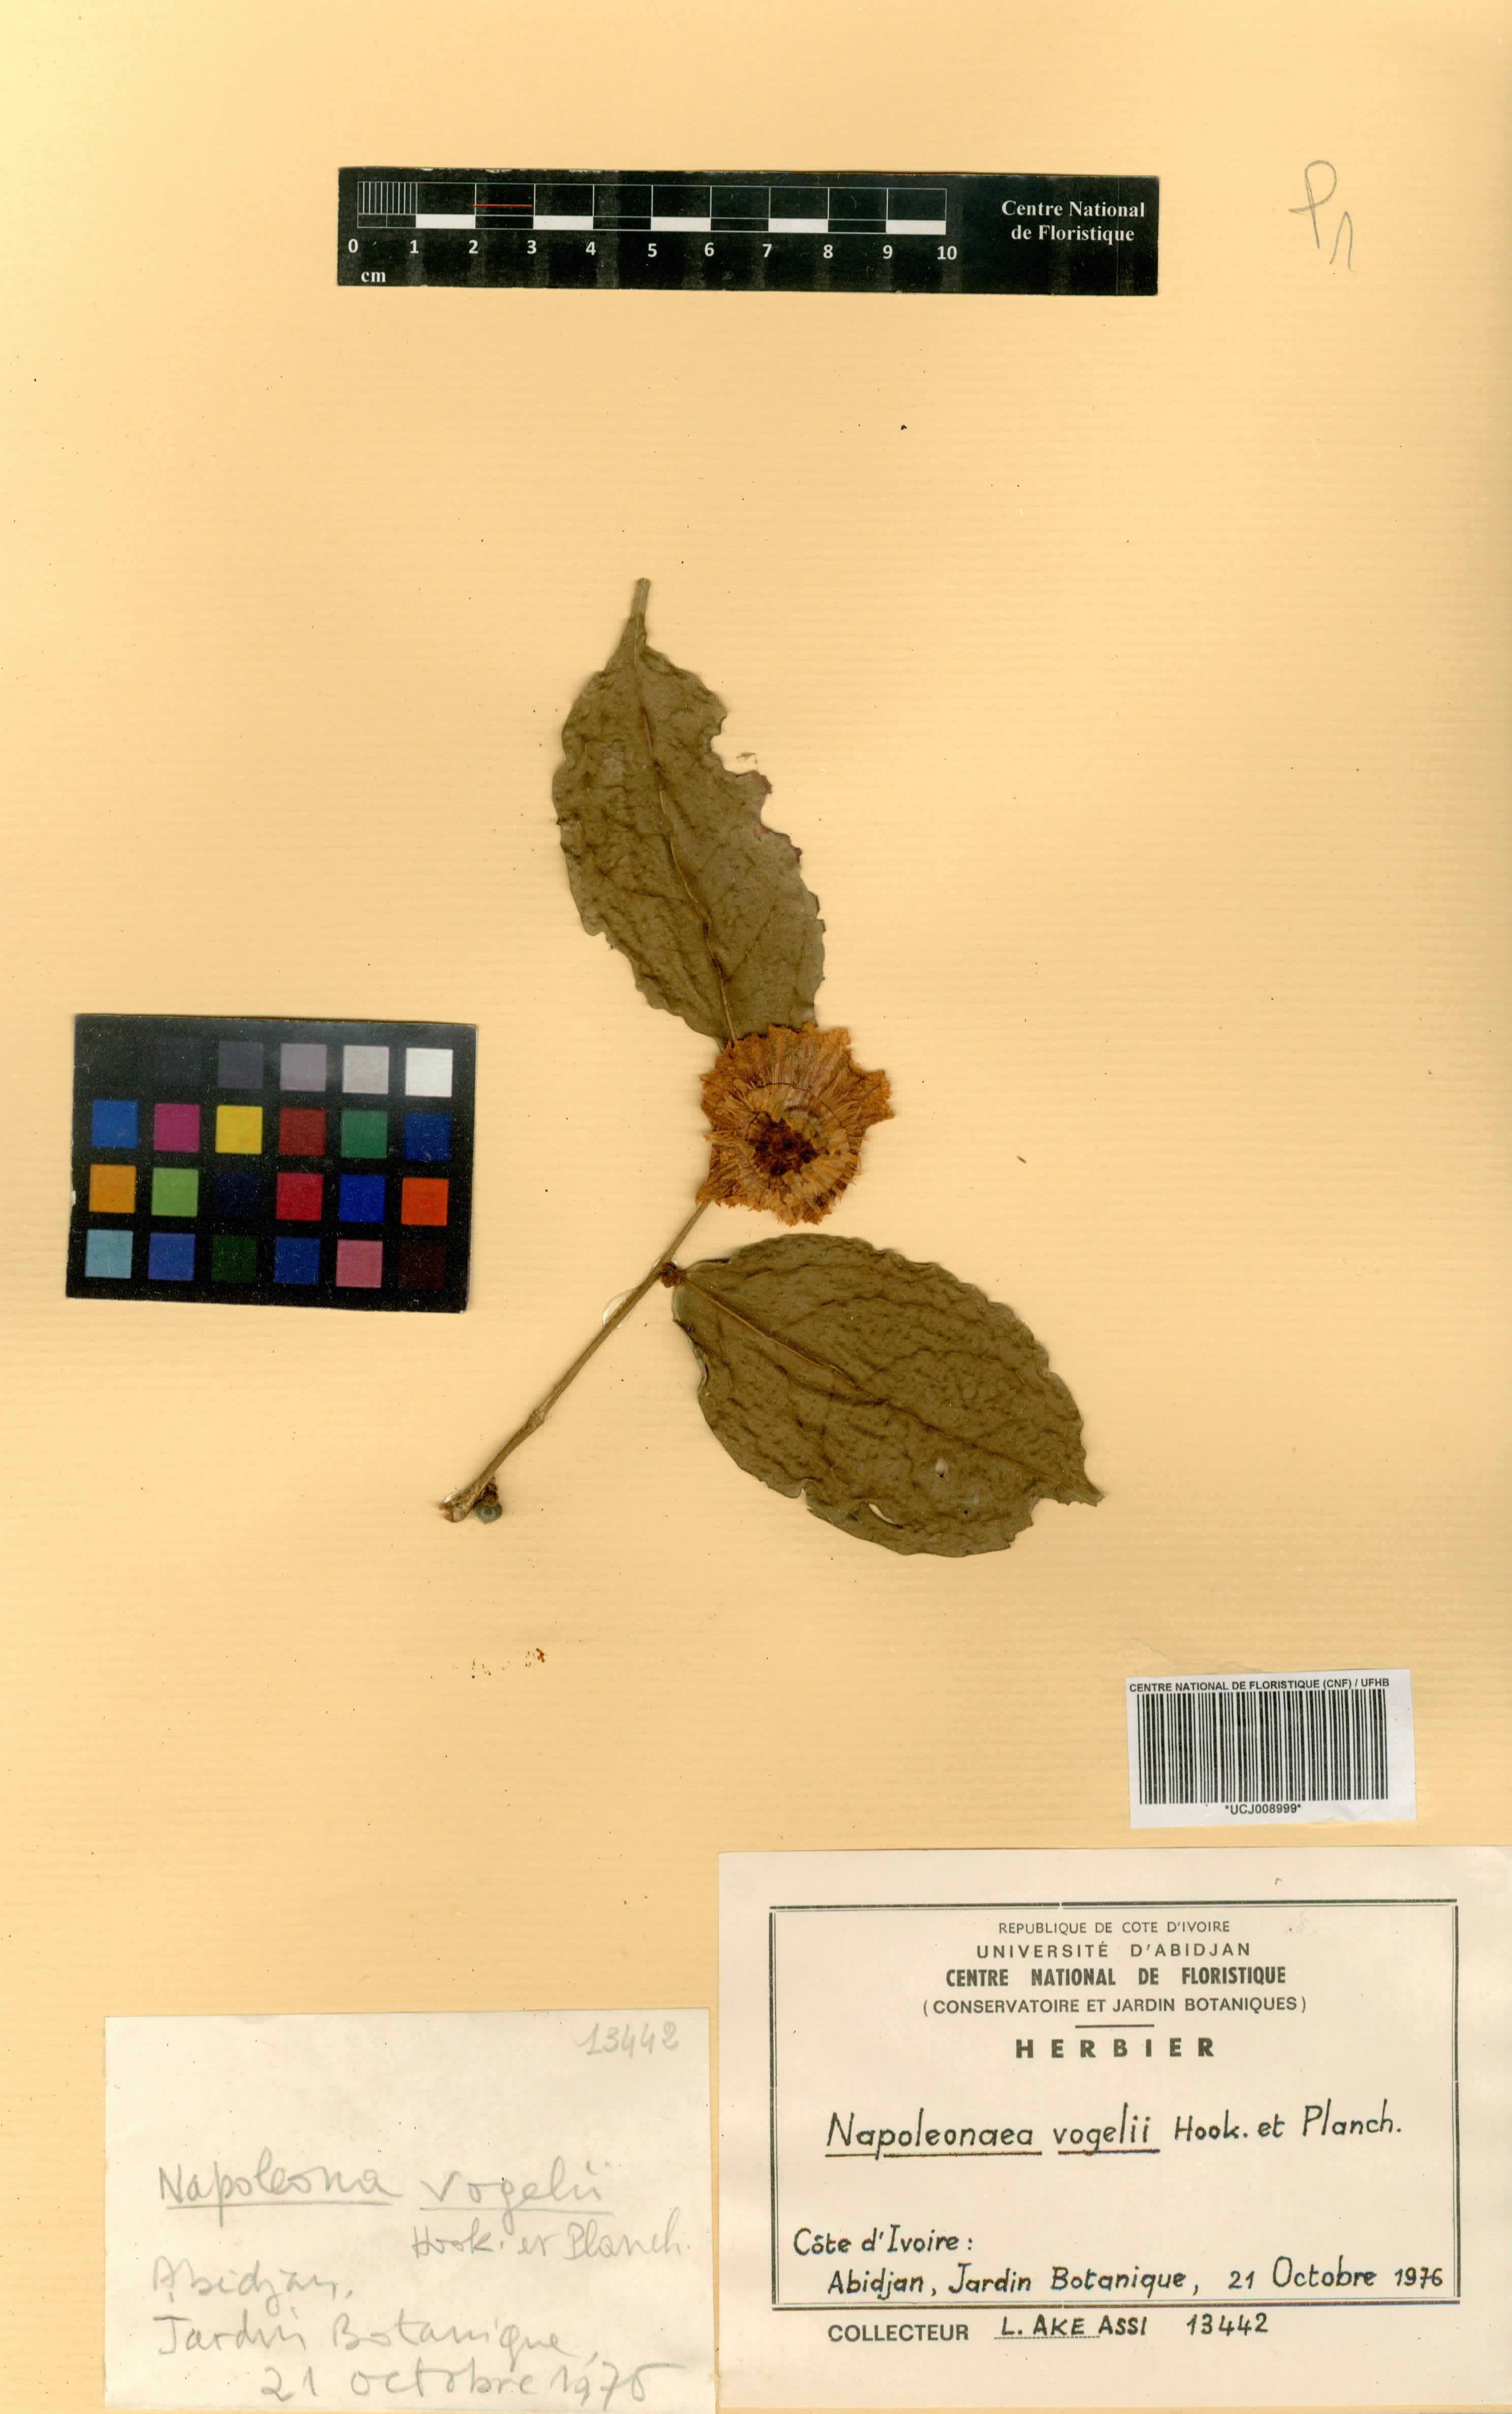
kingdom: Plantae
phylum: Tracheophyta
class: Magnoliopsida
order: Ericales
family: Lecythidaceae
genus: Napoleonaea
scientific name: Napoleonaea vogelii
